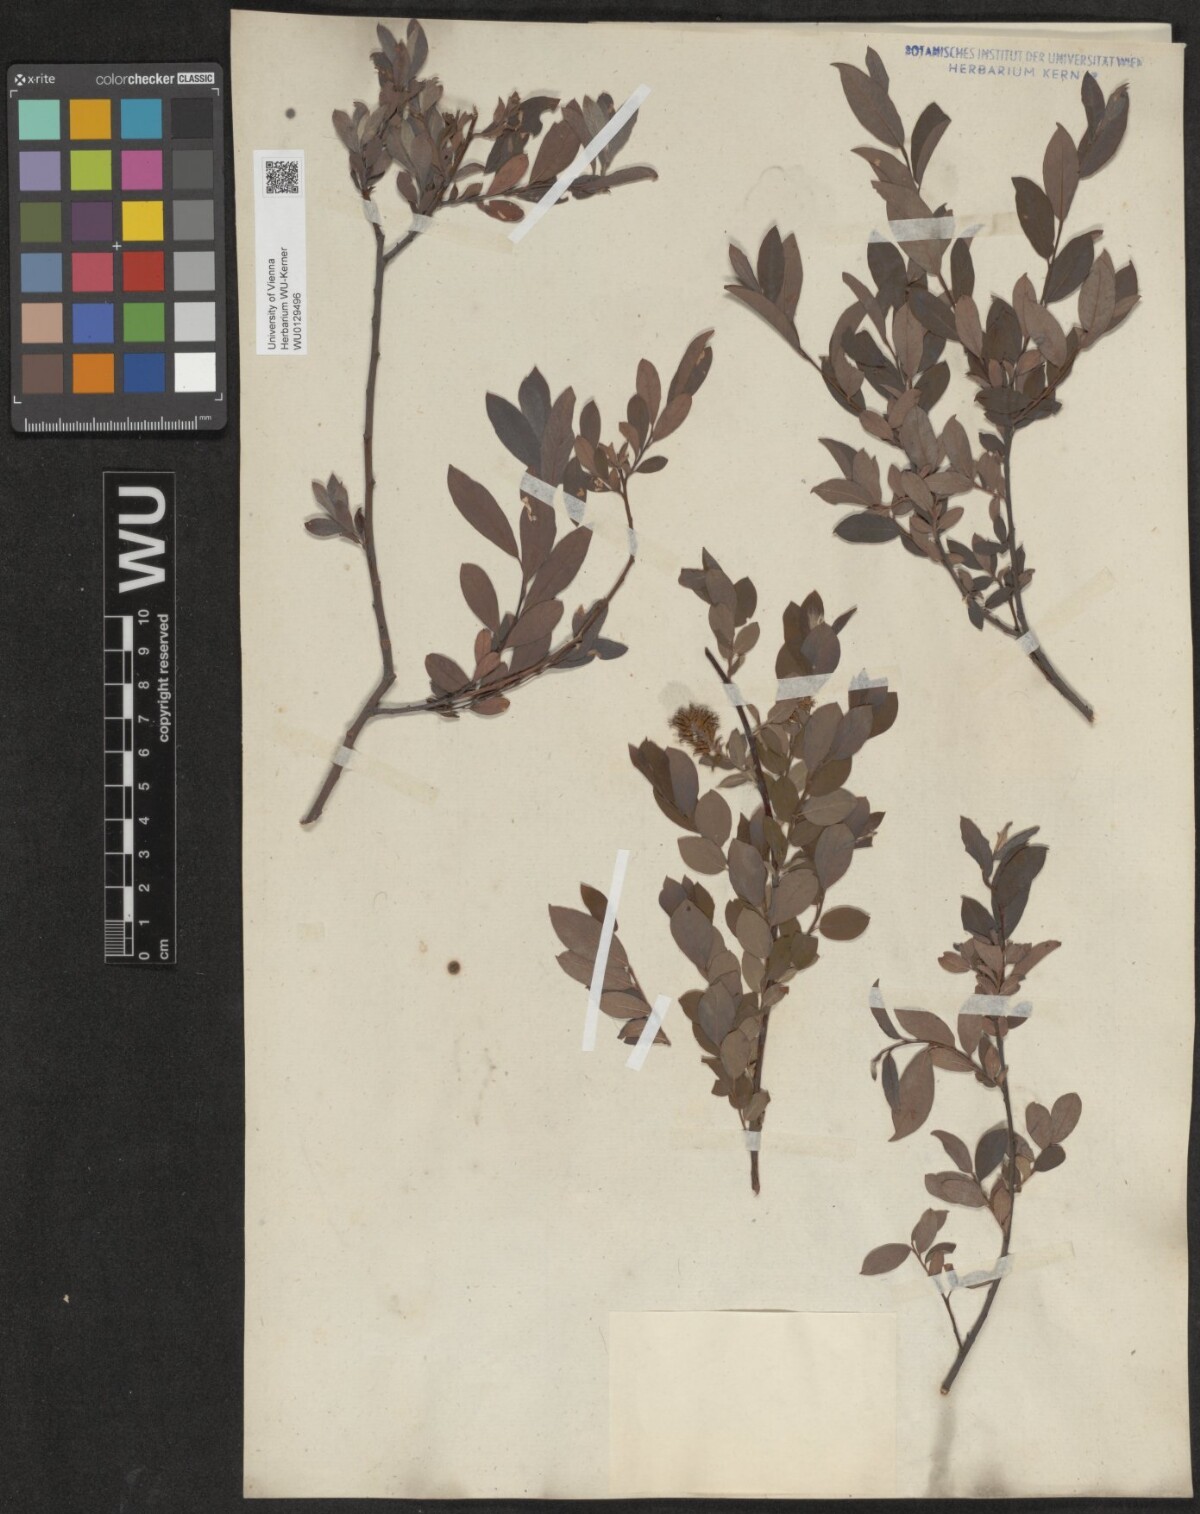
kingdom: Plantae
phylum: Tracheophyta
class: Magnoliopsida
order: Malpighiales
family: Salicaceae
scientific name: Salicaceae
